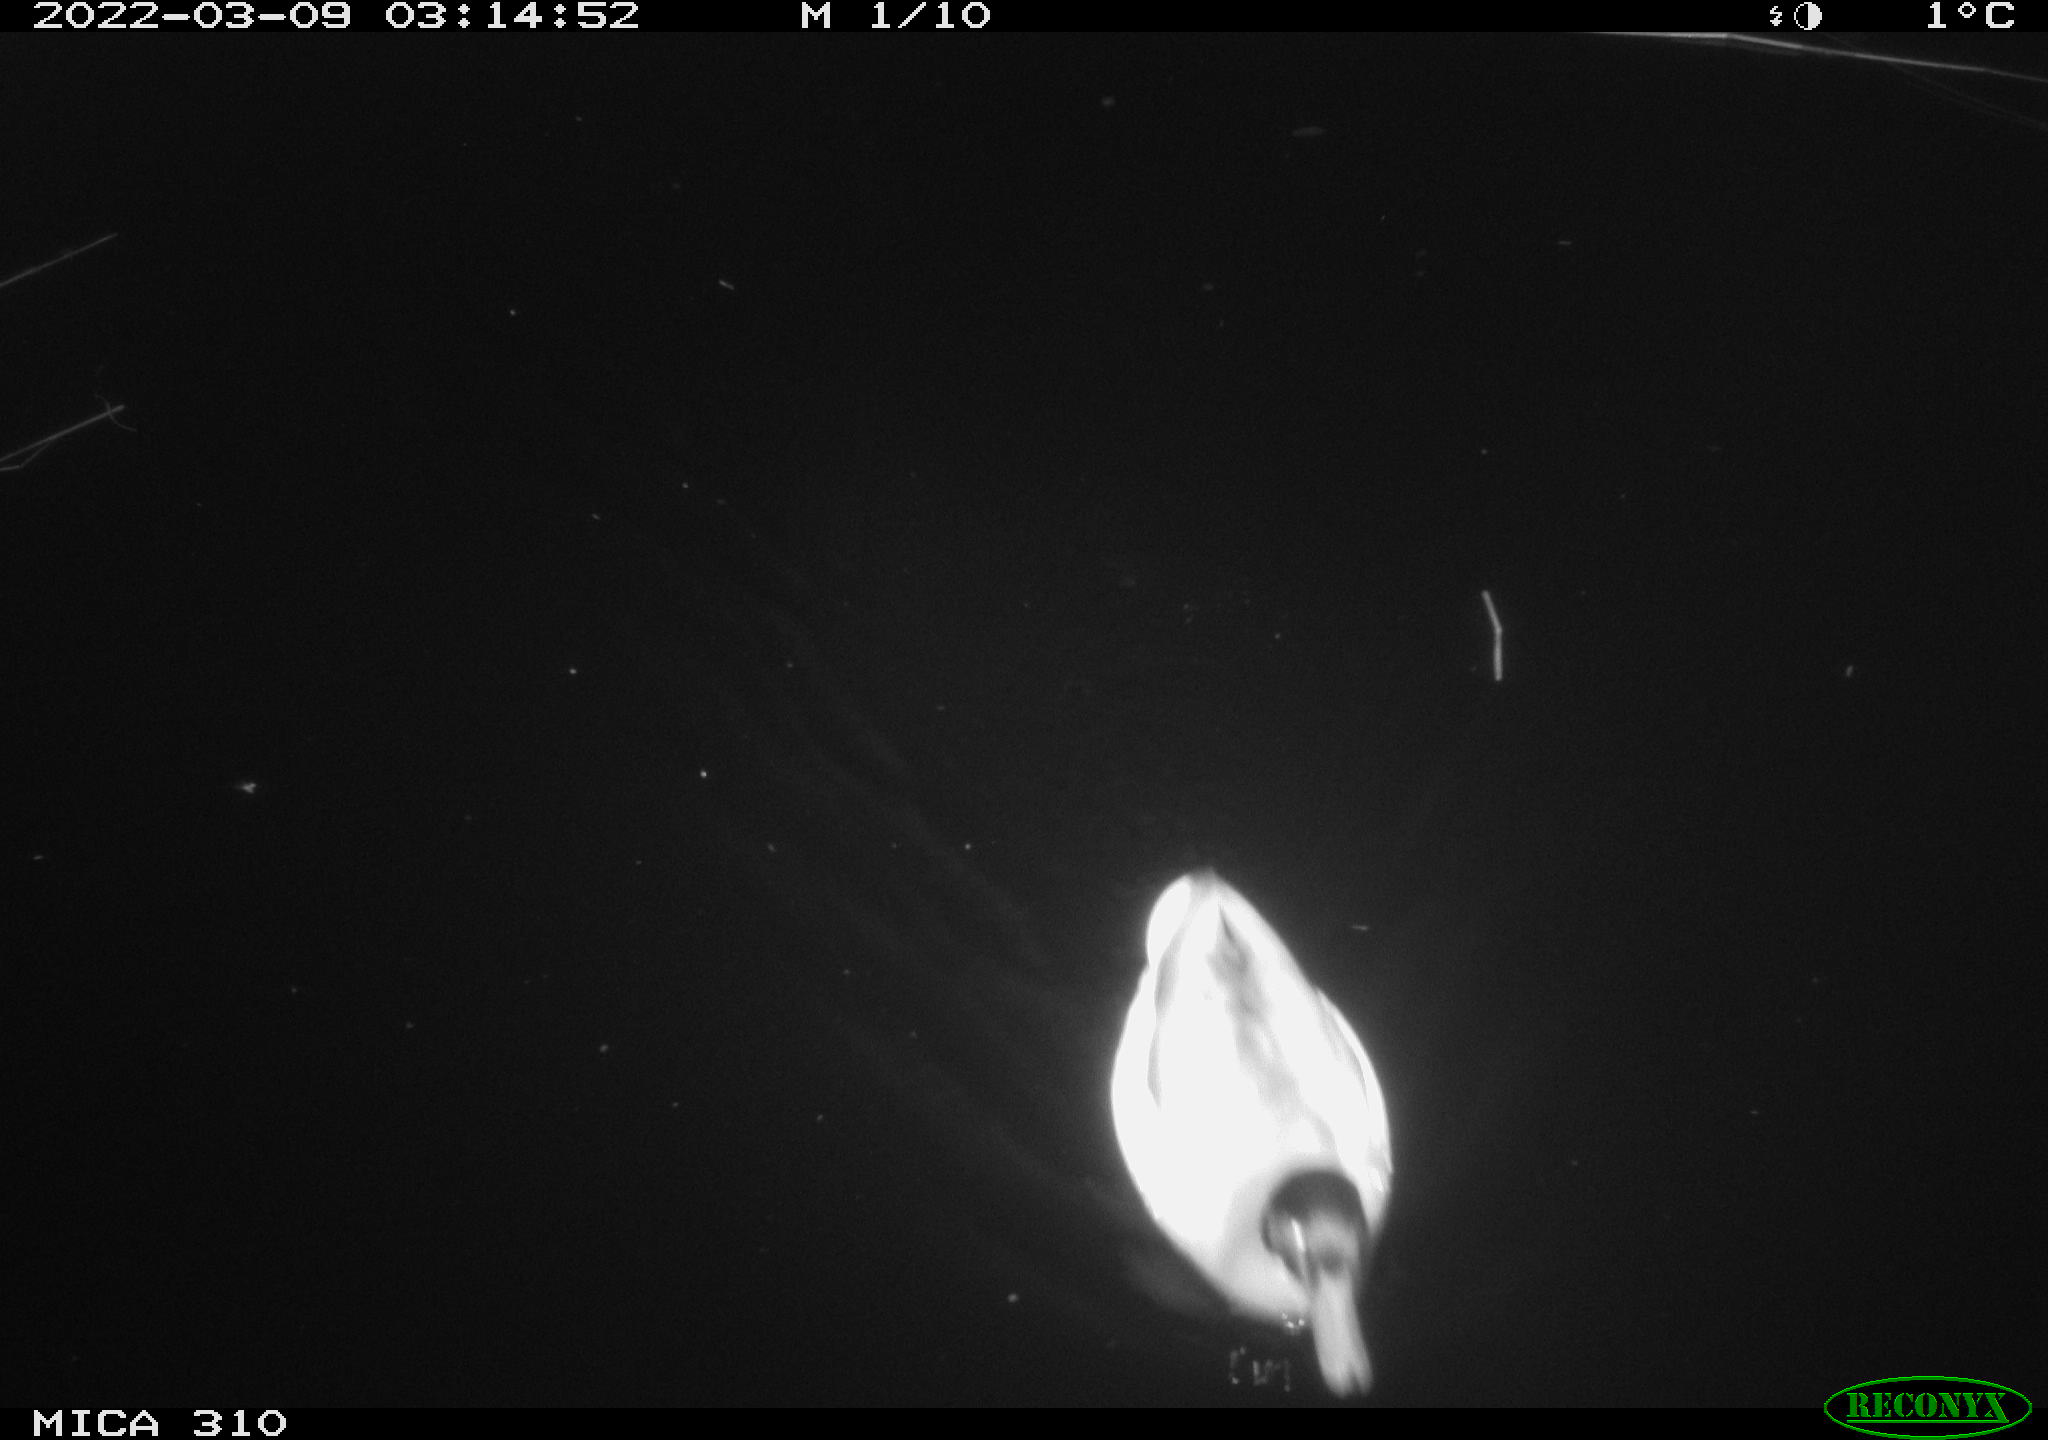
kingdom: Animalia
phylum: Chordata
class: Aves
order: Anseriformes
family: Anatidae
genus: Anas
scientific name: Anas platyrhynchos
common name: Mallard
